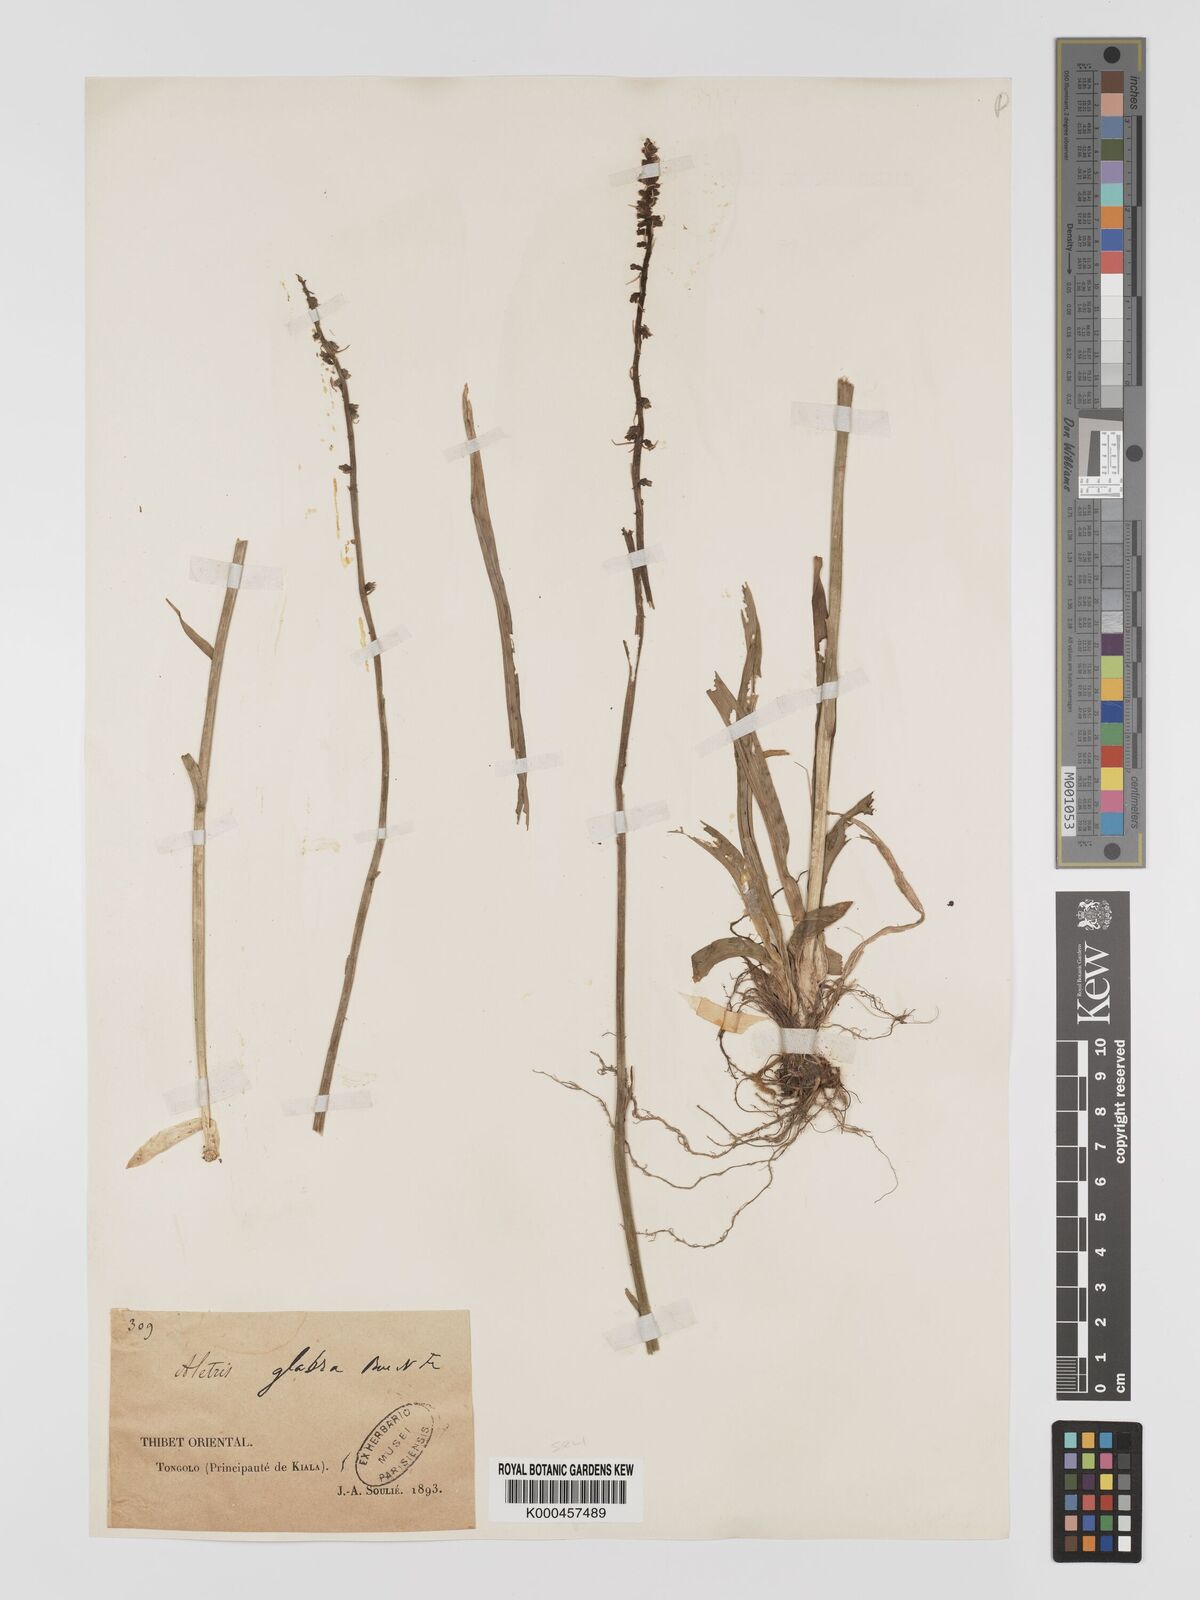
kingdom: Plantae
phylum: Tracheophyta
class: Liliopsida
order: Dioscoreales
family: Nartheciaceae
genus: Aletris
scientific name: Aletris glabra
